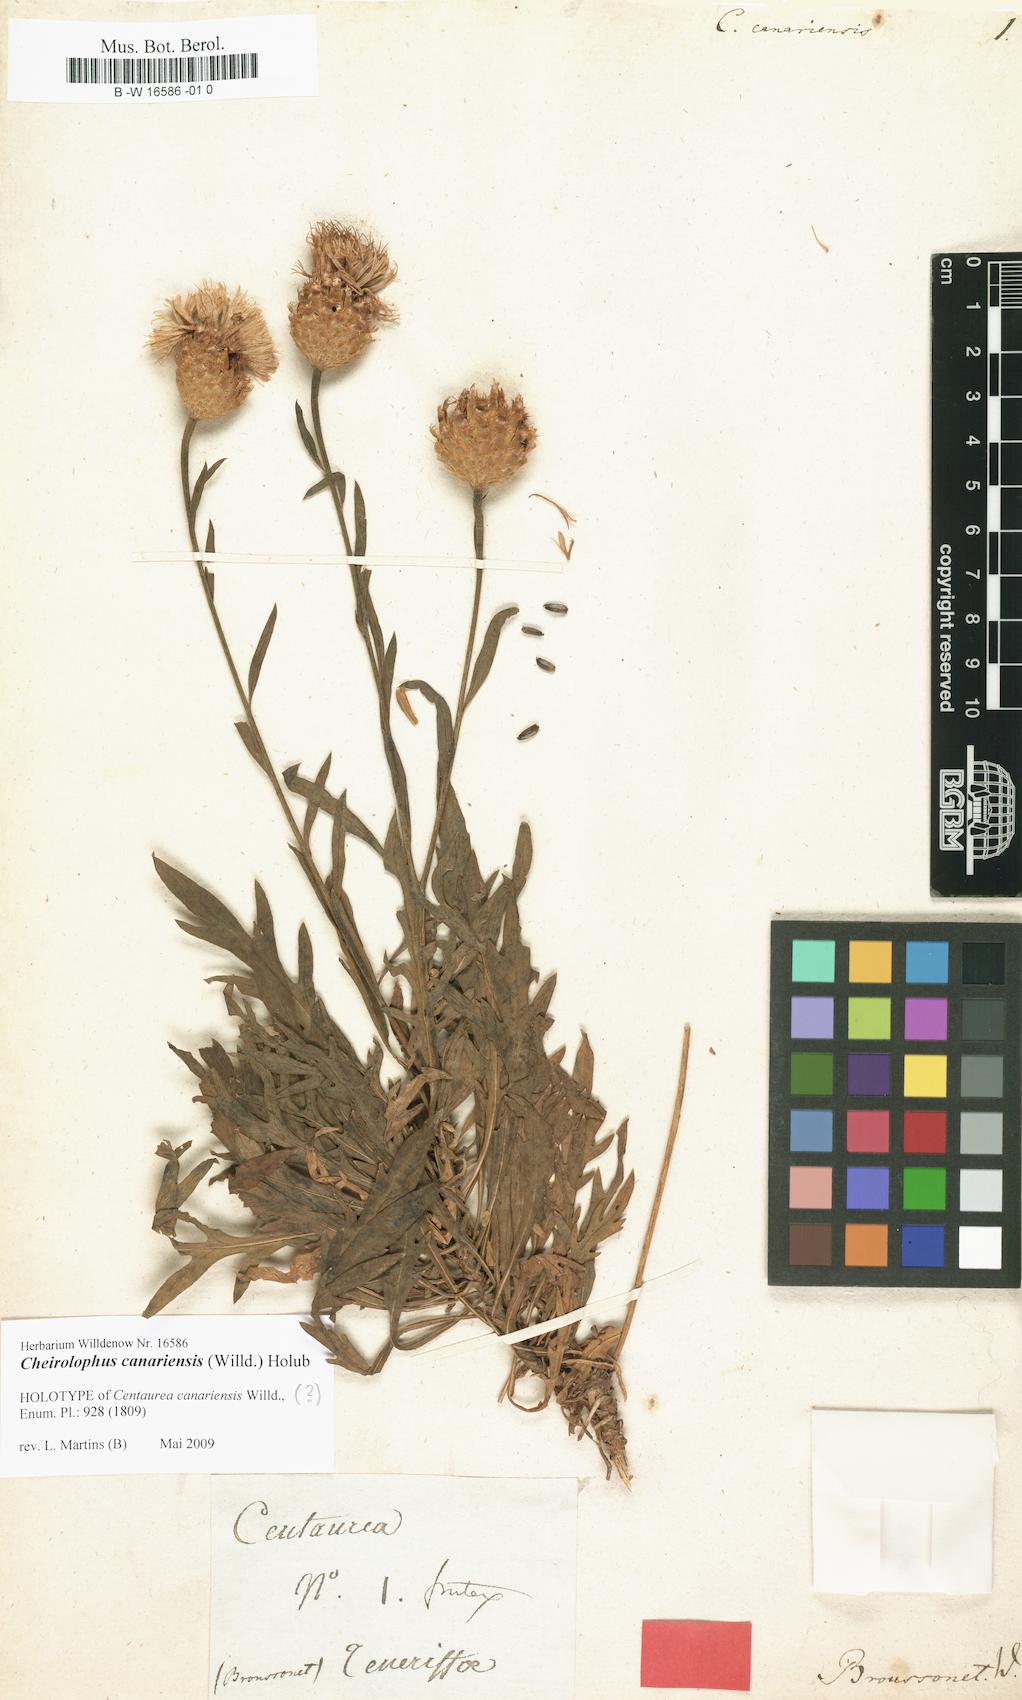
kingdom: Plantae
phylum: Tracheophyta
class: Magnoliopsida
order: Asterales
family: Asteraceae
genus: Cheirolophus
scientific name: Cheirolophus canariensis
